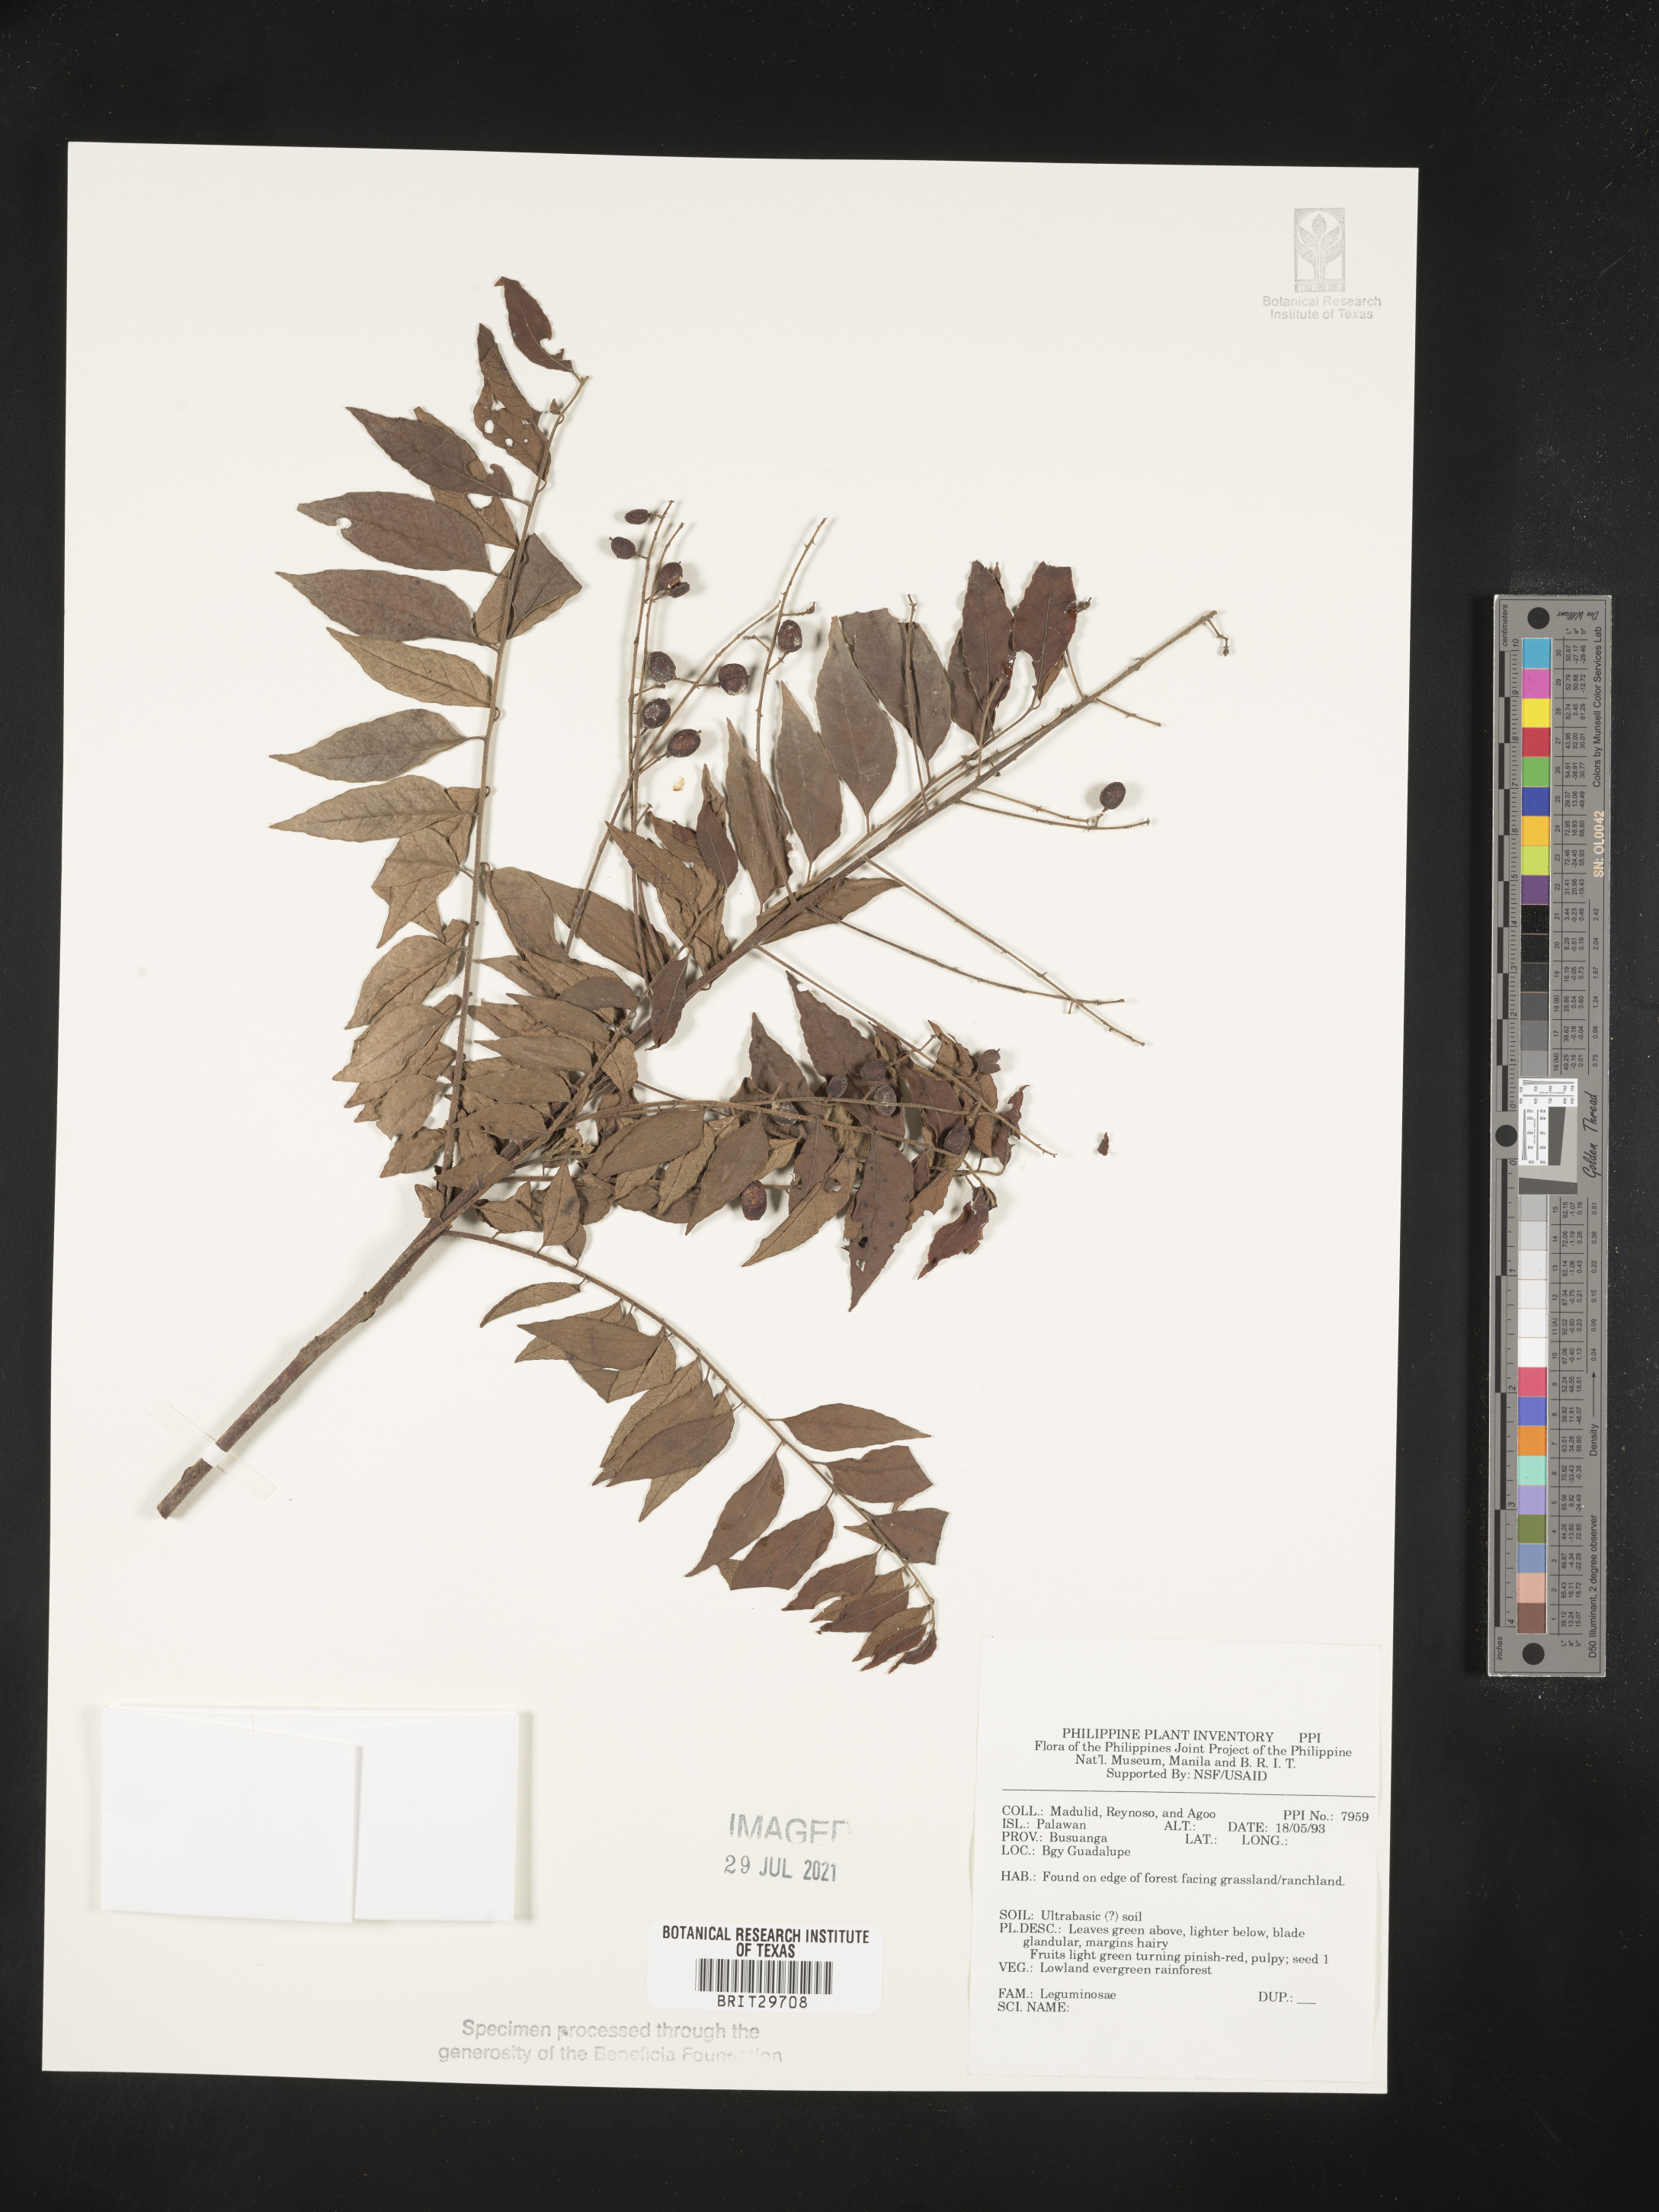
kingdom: Plantae
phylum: Tracheophyta
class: Magnoliopsida
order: Fabales
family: Fabaceae
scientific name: Fabaceae
